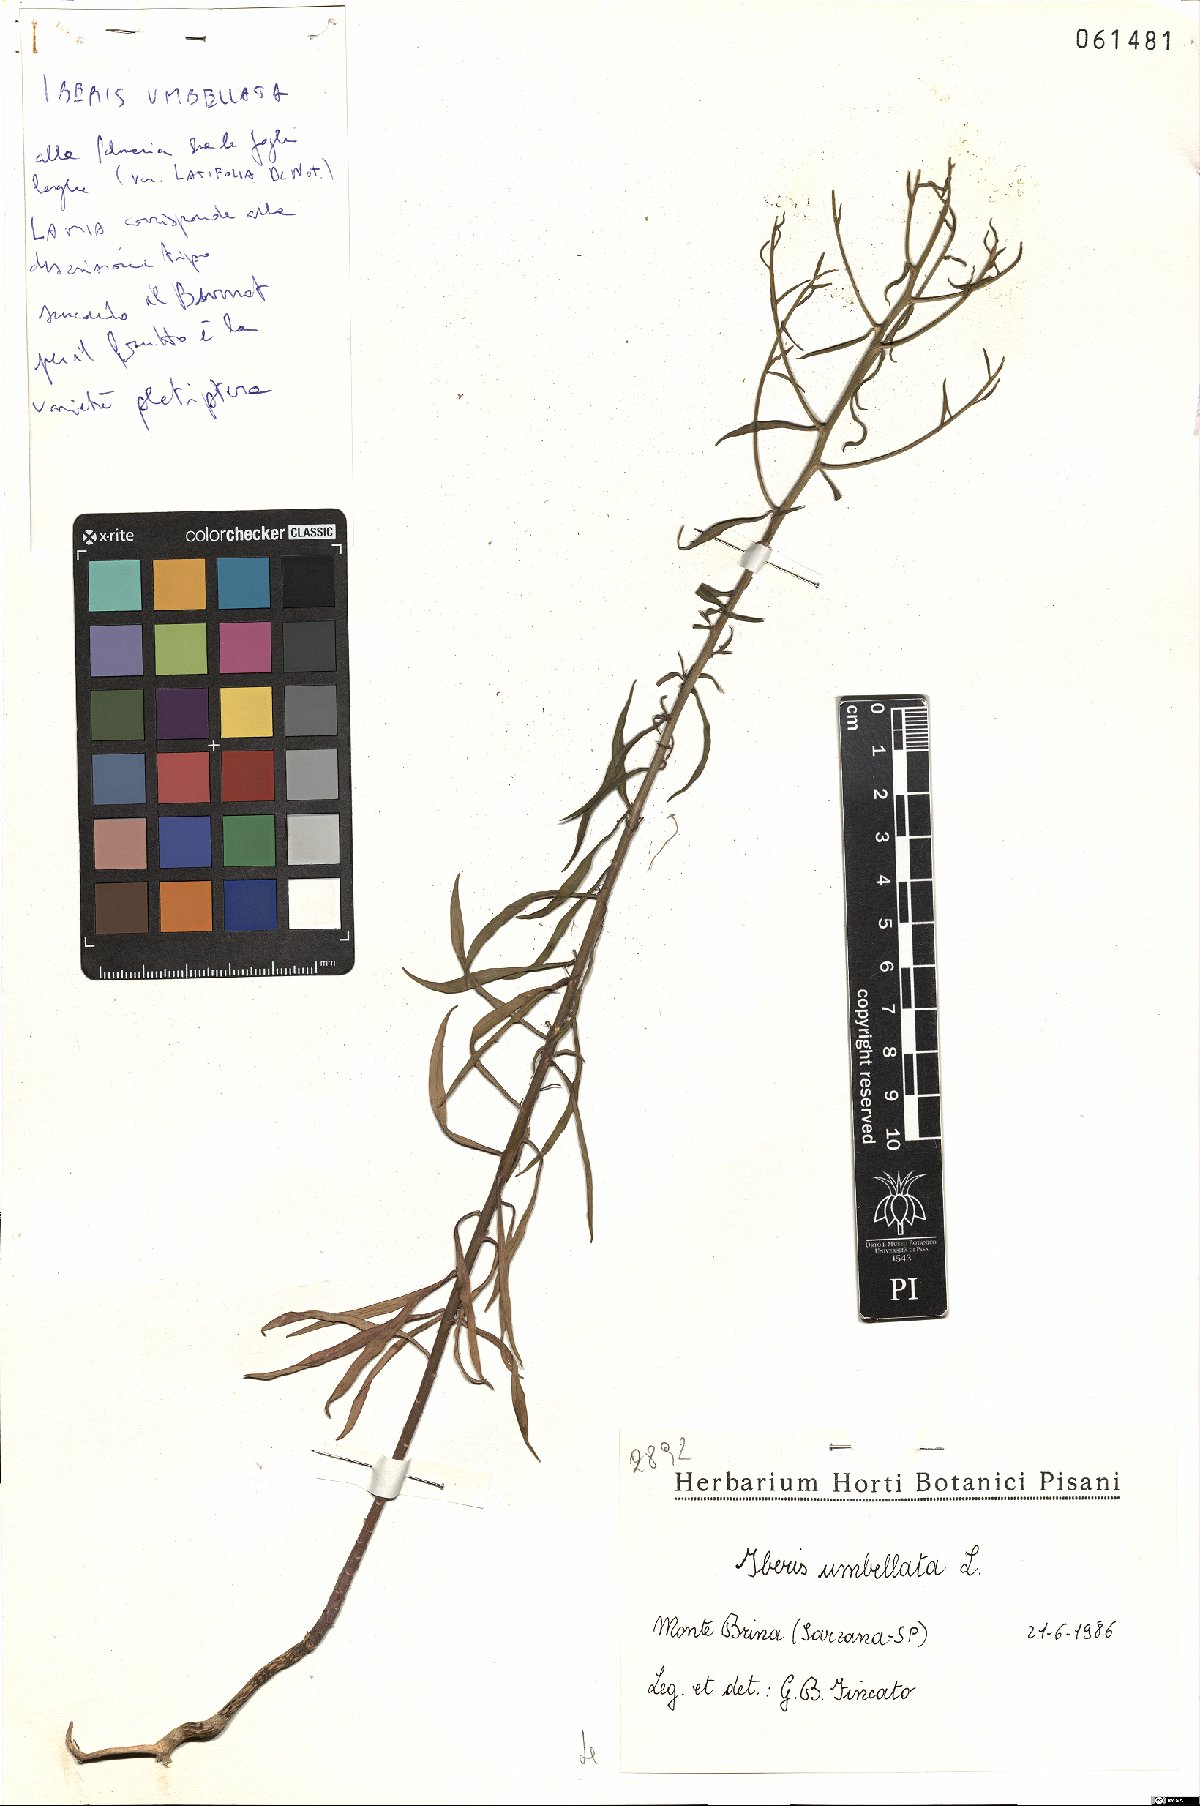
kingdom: Plantae
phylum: Tracheophyta
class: Magnoliopsida
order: Brassicales
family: Brassicaceae
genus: Iberis
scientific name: Iberis umbellata
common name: Globe candytuft
